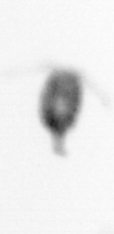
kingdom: Animalia
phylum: Arthropoda
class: Copepoda
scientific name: Copepoda
